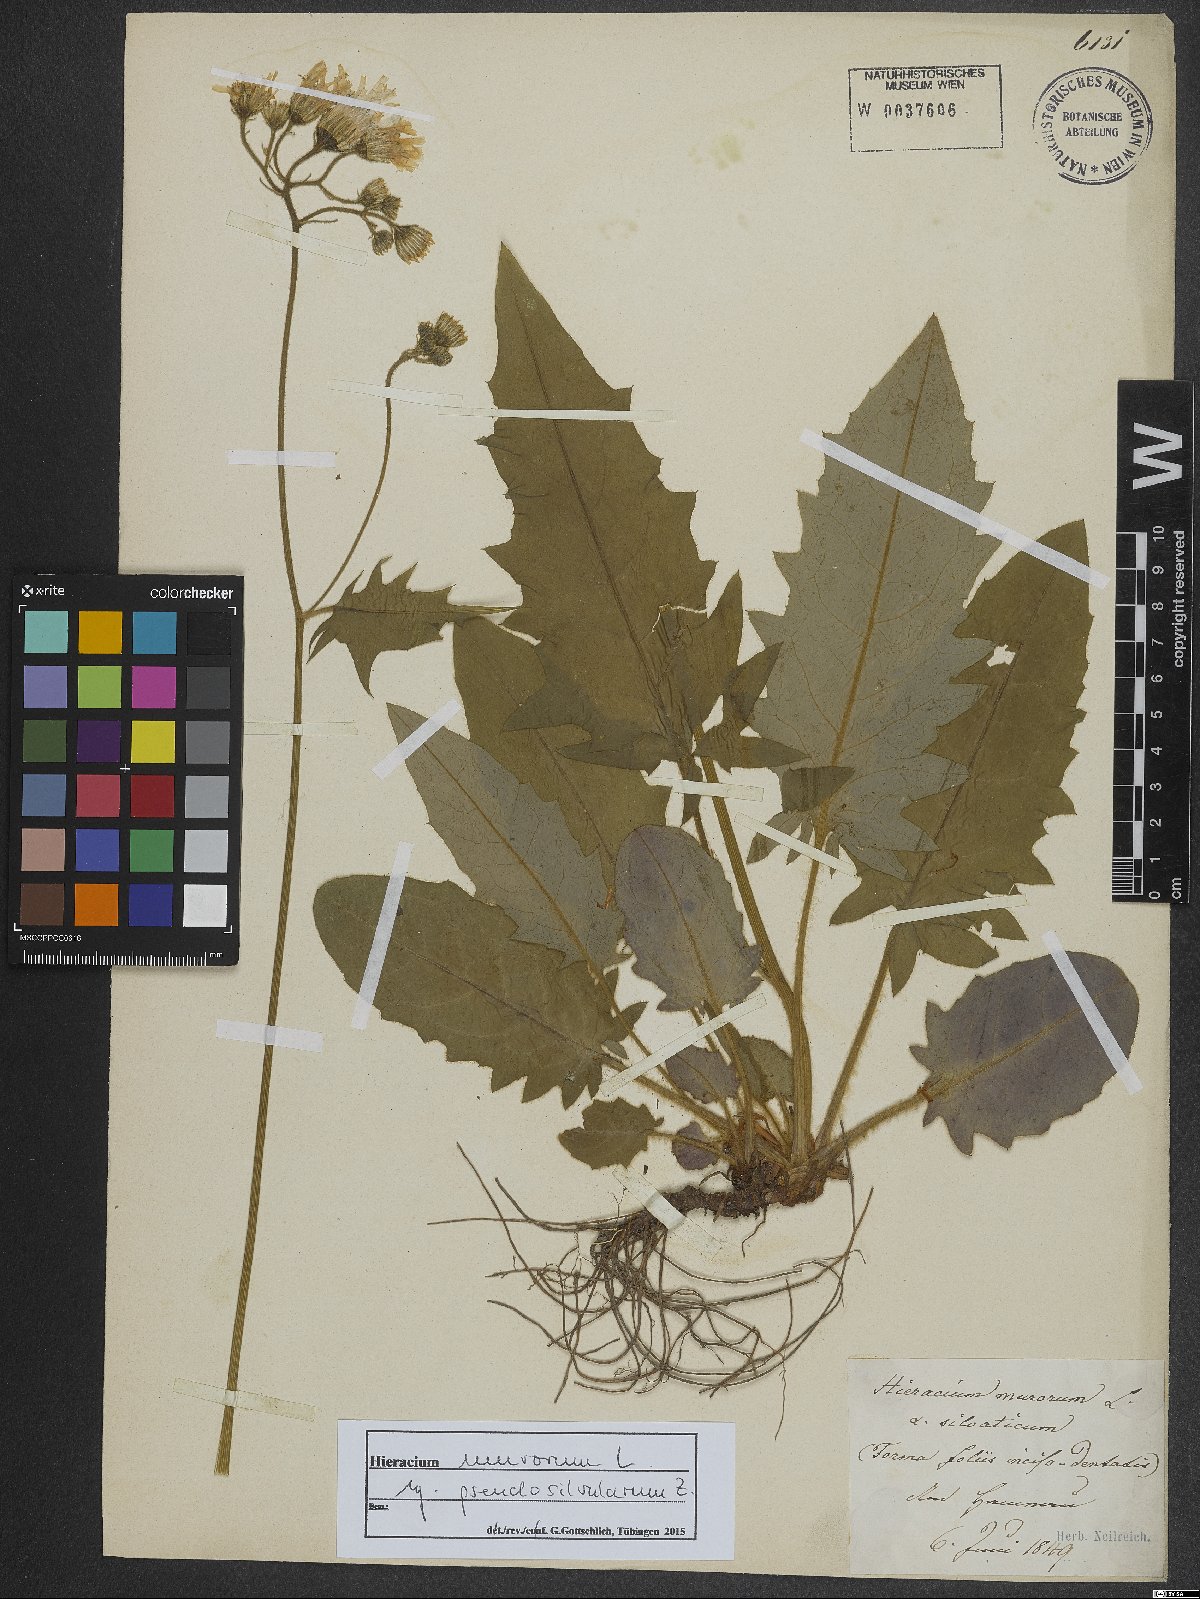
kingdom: Plantae
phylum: Tracheophyta
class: Magnoliopsida
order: Asterales
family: Asteraceae
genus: Hieracium
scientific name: Hieracium murorum
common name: Wall hawkweed
